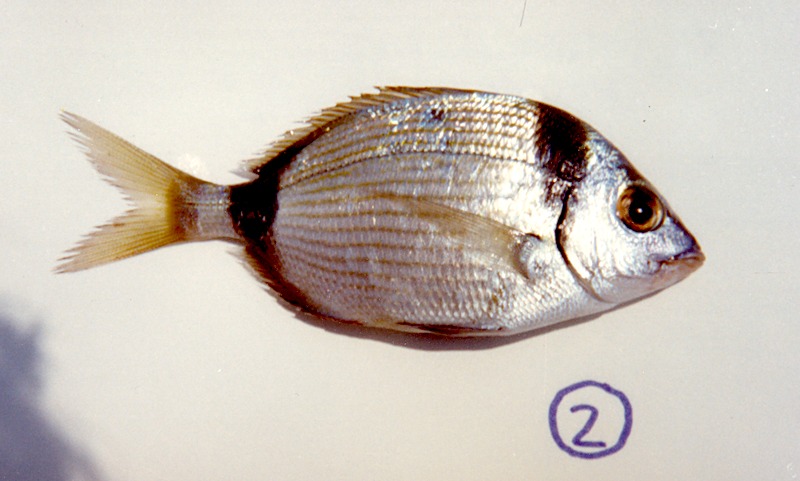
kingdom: Animalia
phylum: Chordata
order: Perciformes
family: Sparidae
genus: Diplodus
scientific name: Diplodus vulgaris
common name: Common two-banded seabream
